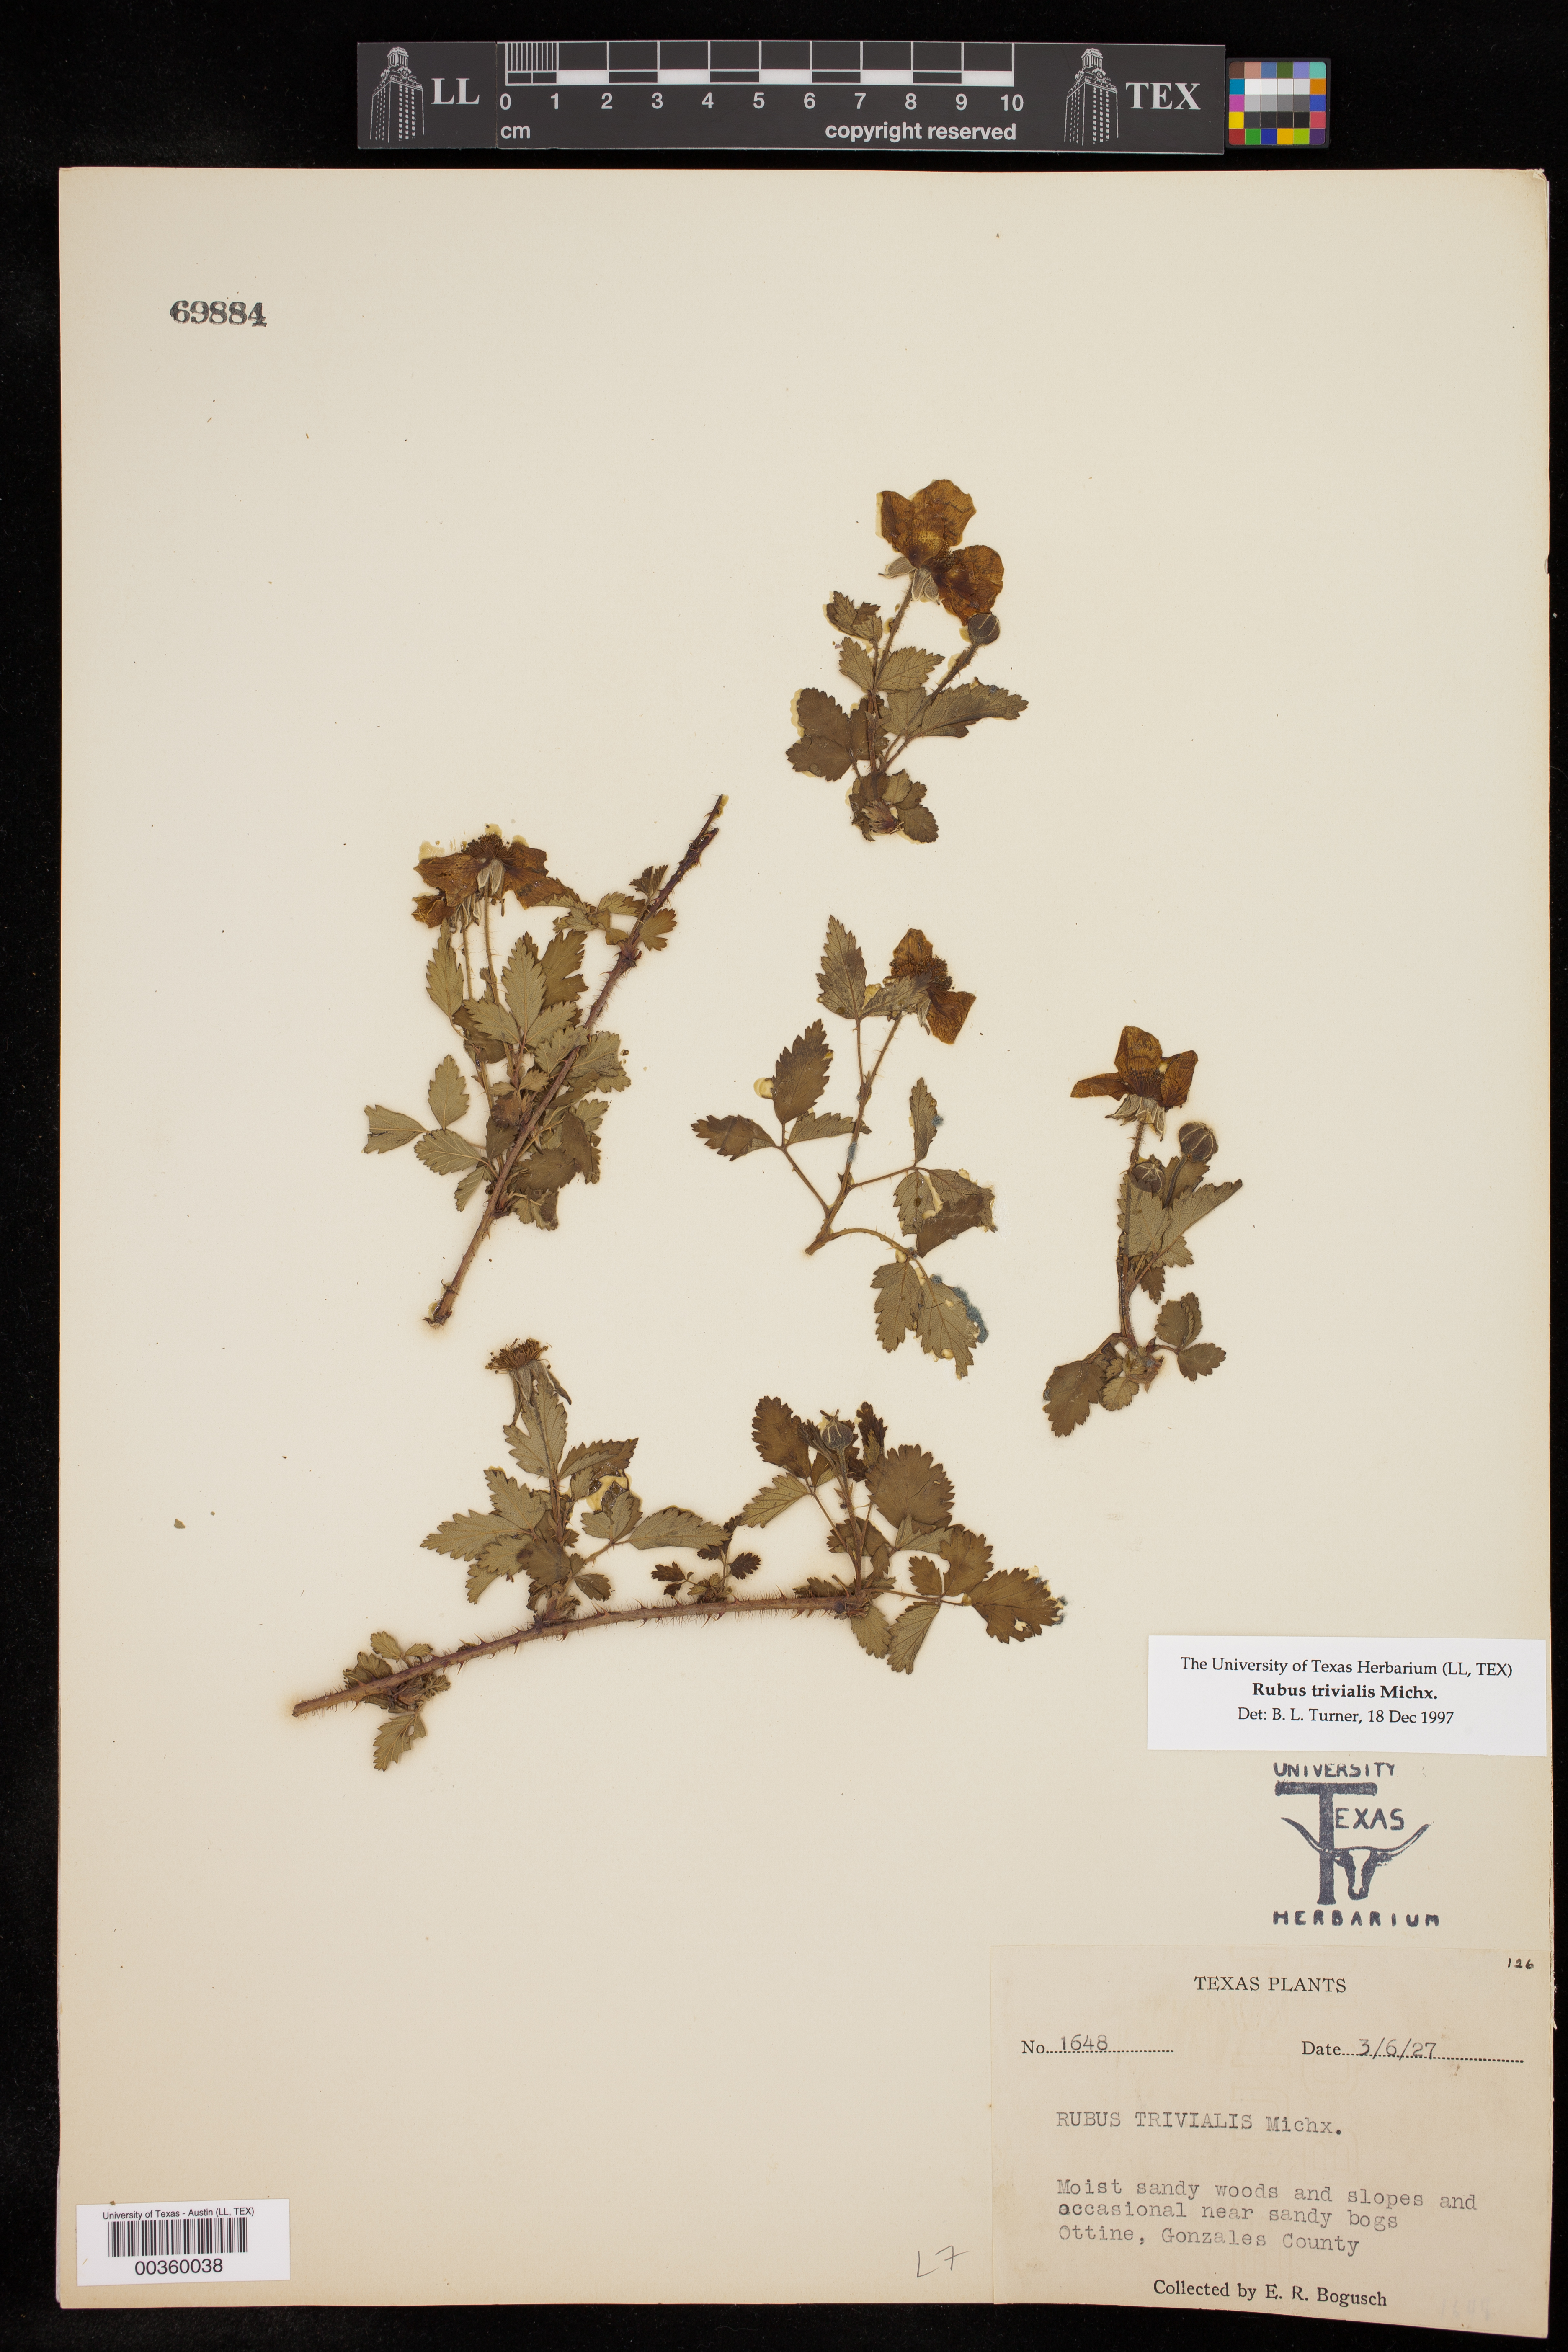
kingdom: Plantae
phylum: Tracheophyta
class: Magnoliopsida
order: Rosales
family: Rosaceae
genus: Rubus
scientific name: Rubus trivialis
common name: Southern dewberry
